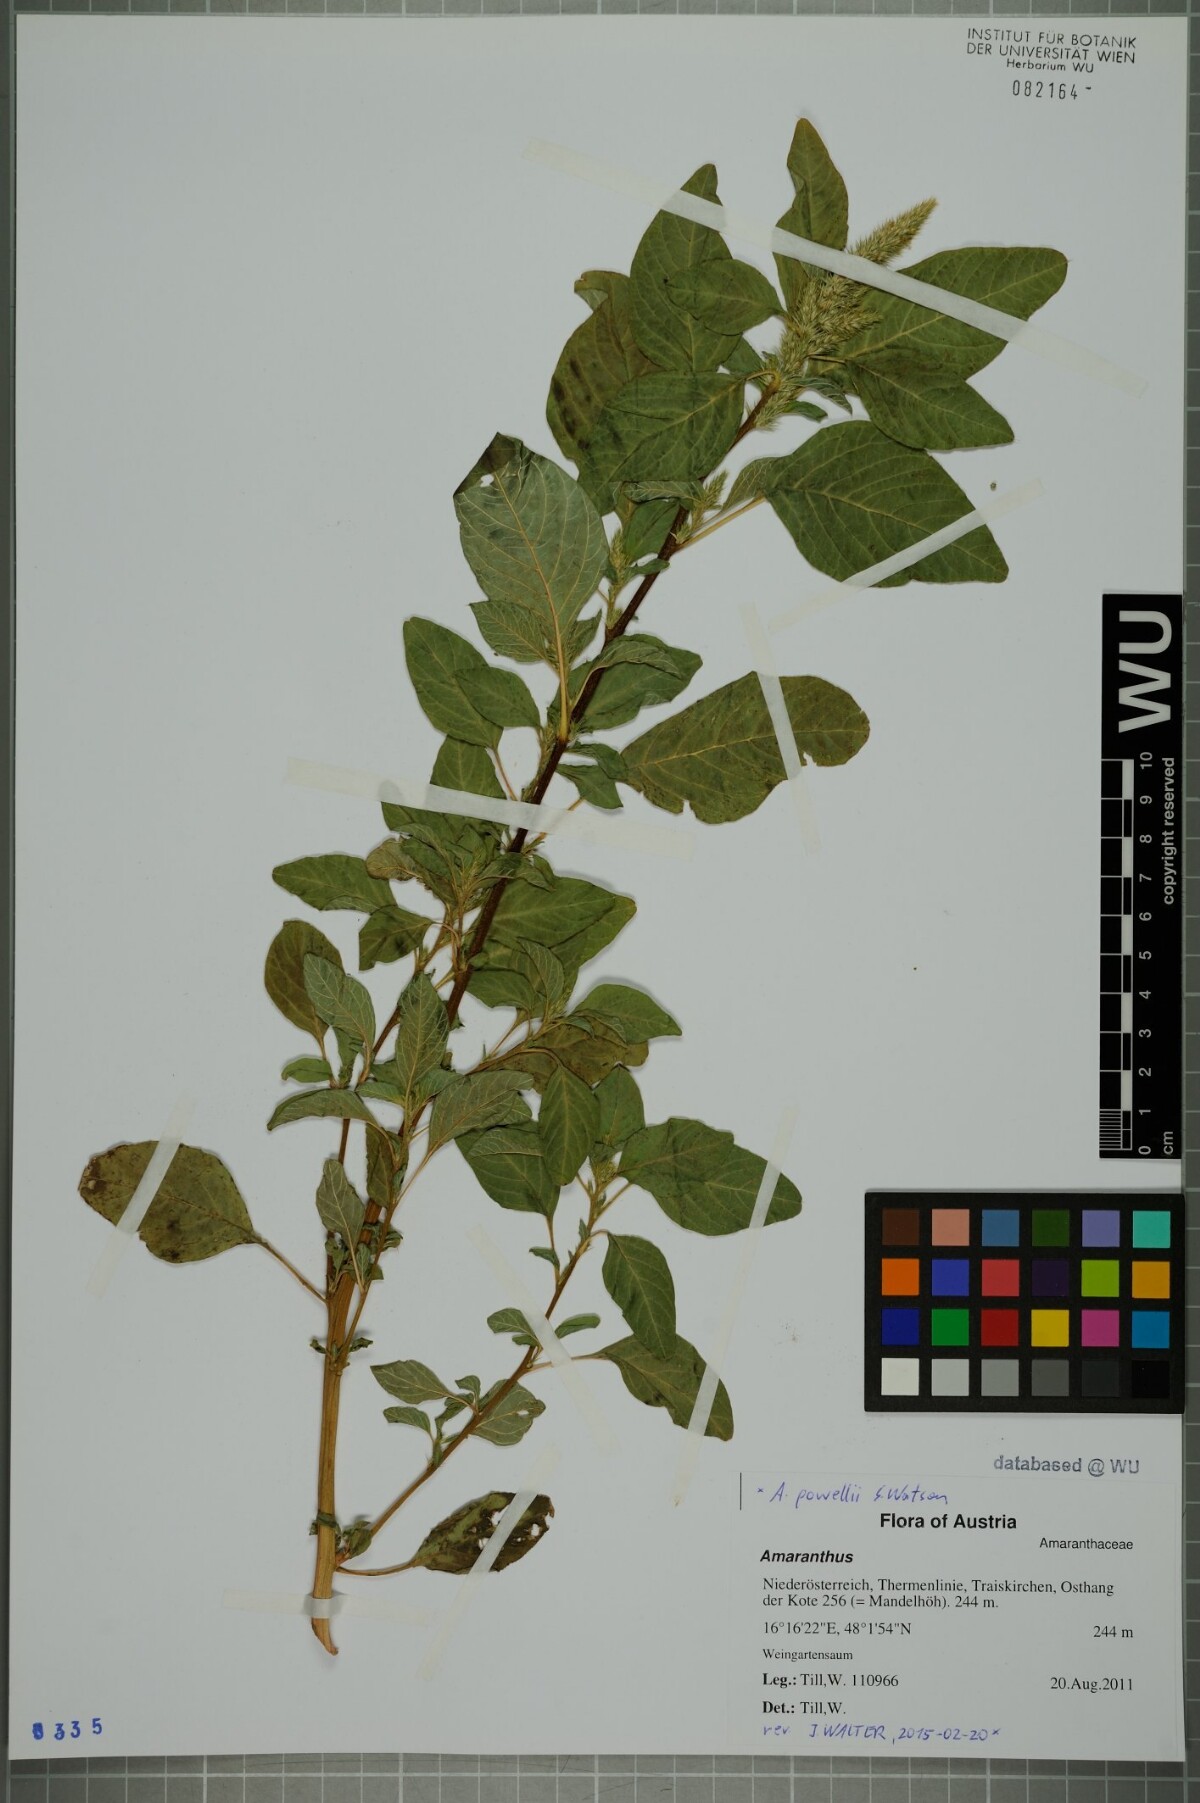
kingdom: Plantae
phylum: Tracheophyta
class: Magnoliopsida
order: Caryophyllales
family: Amaranthaceae
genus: Amaranthus
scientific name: Amaranthus powellii
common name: Powell's amaranth
